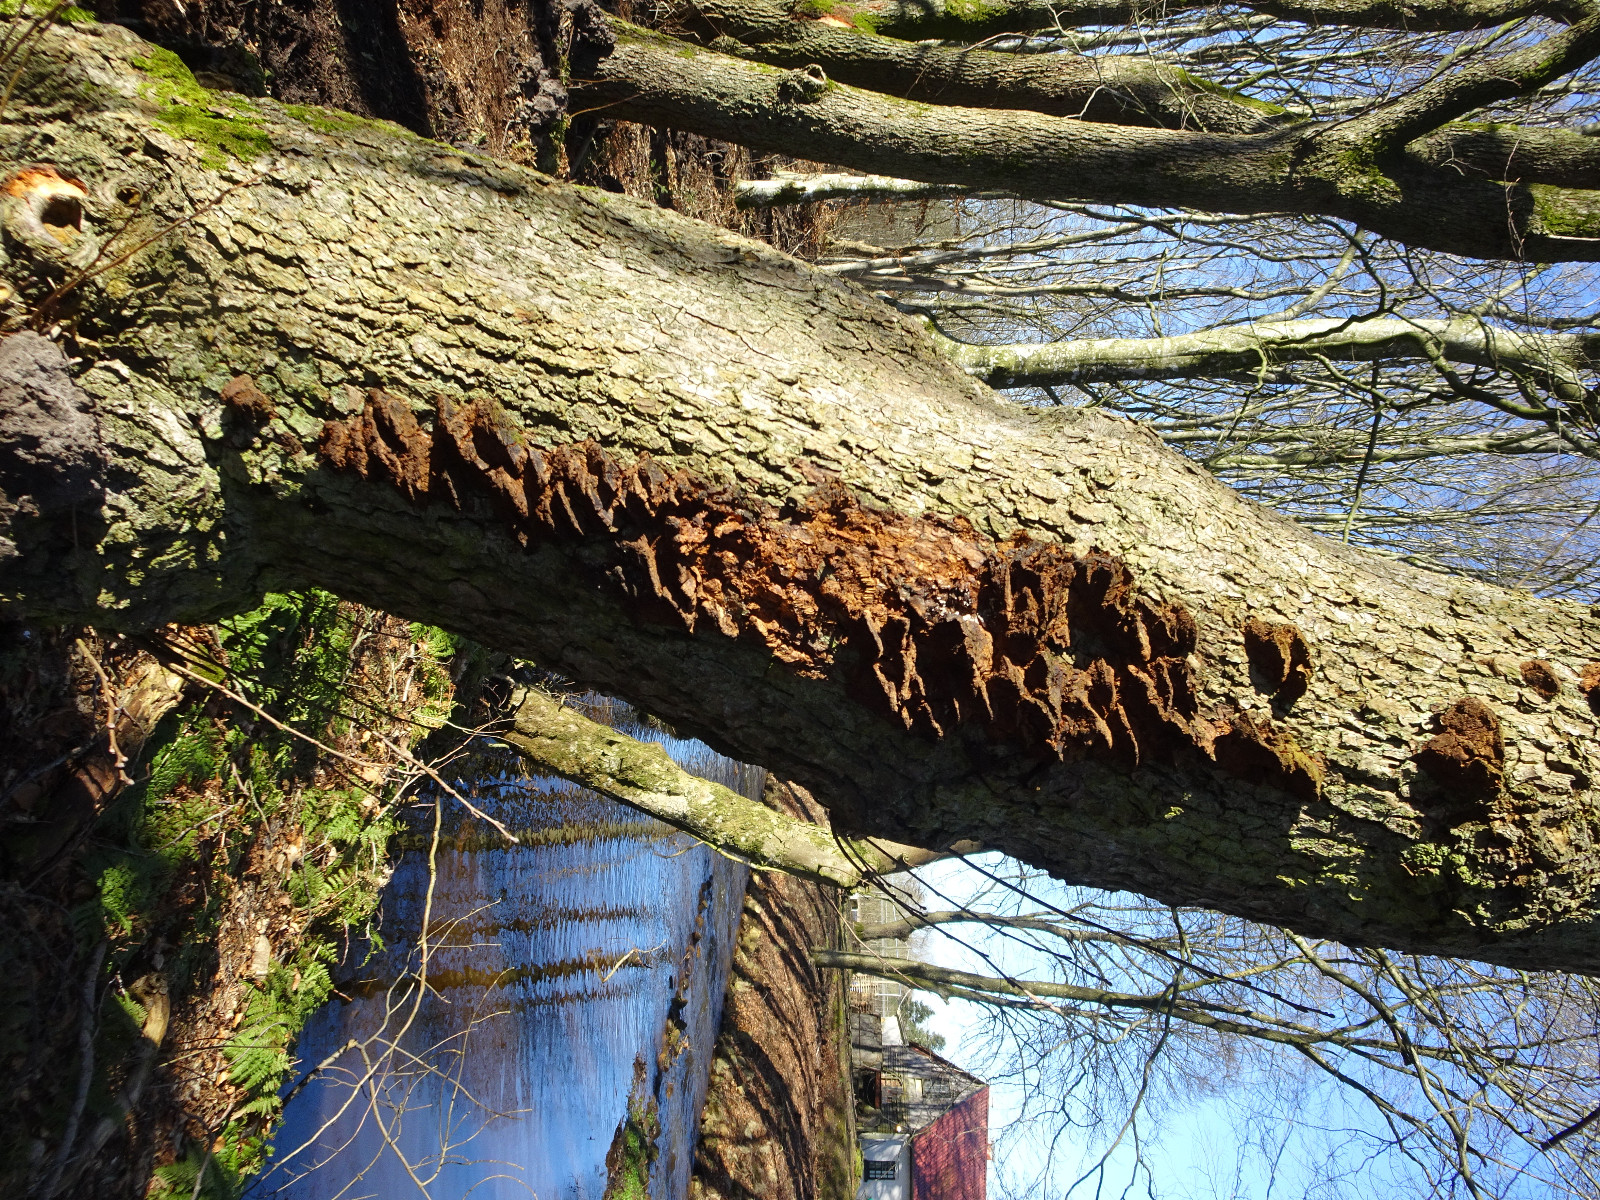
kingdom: Fungi
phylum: Basidiomycota
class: Agaricomycetes
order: Hymenochaetales
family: Hymenochaetaceae
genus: Xanthoporia
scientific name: Xanthoporia radiata
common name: elle-spejlporesvamp
